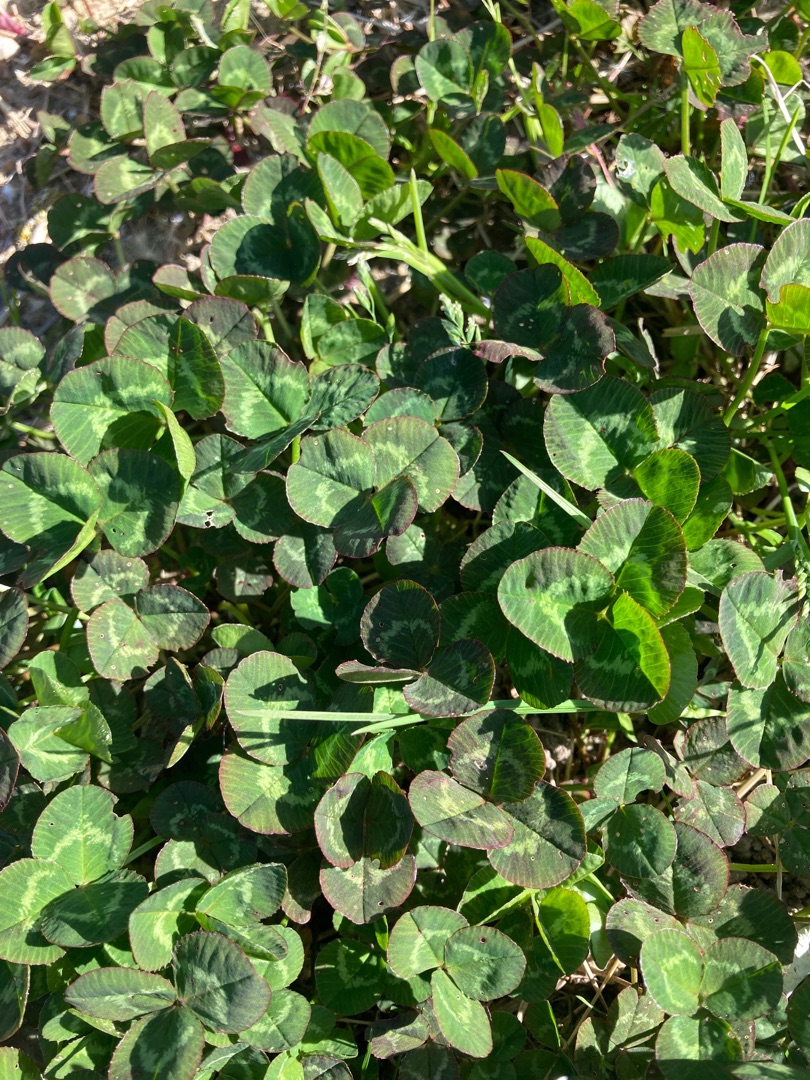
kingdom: Plantae
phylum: Tracheophyta
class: Magnoliopsida
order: Fabales
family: Fabaceae
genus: Trifolium
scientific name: Trifolium repens
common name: Hvid-kløver
